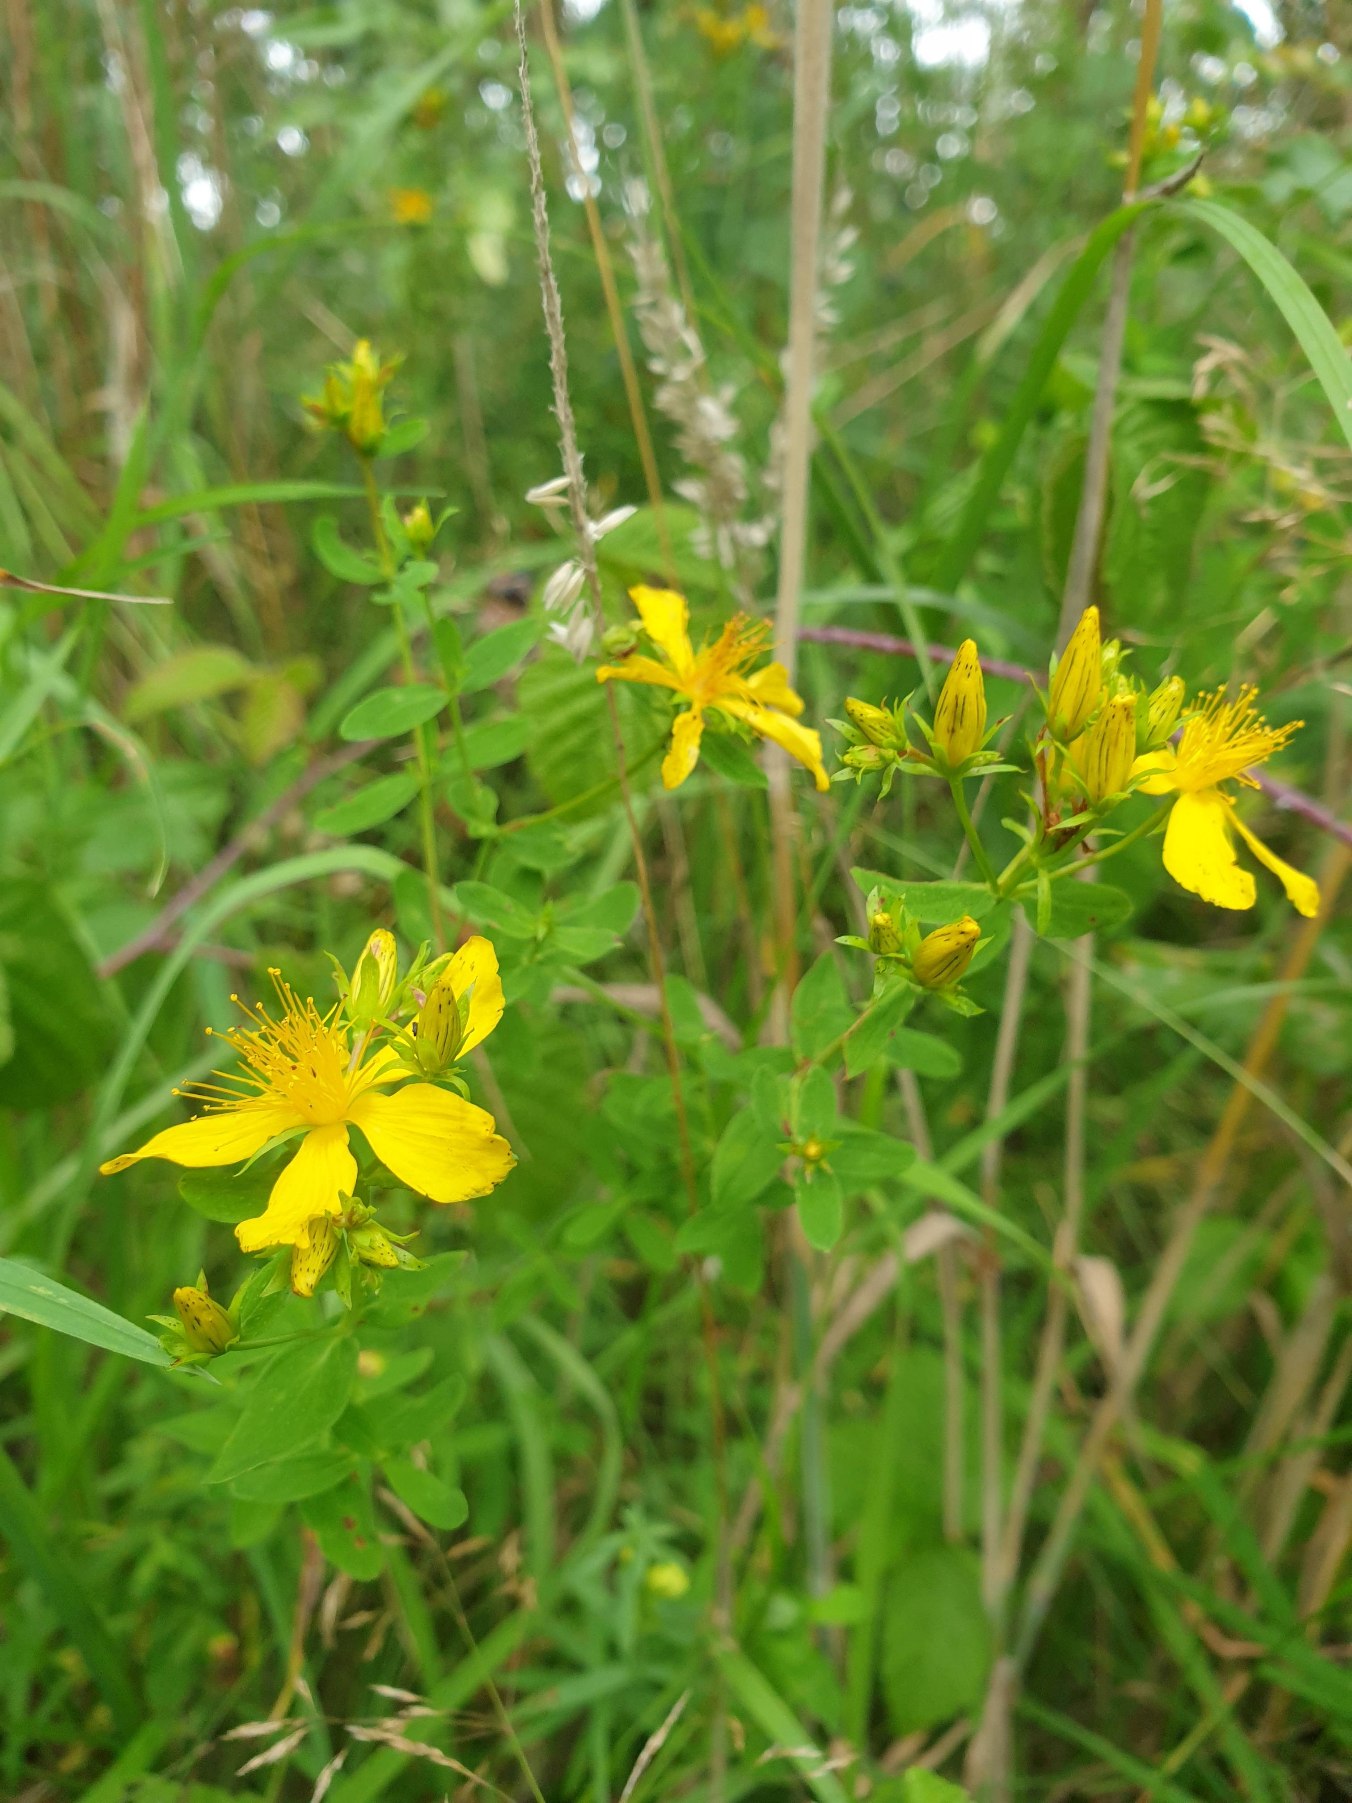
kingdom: Plantae
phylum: Tracheophyta
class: Magnoliopsida
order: Malpighiales
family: Hypericaceae
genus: Hypericum
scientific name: Hypericum perforatum
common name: Prikbladet perikon
